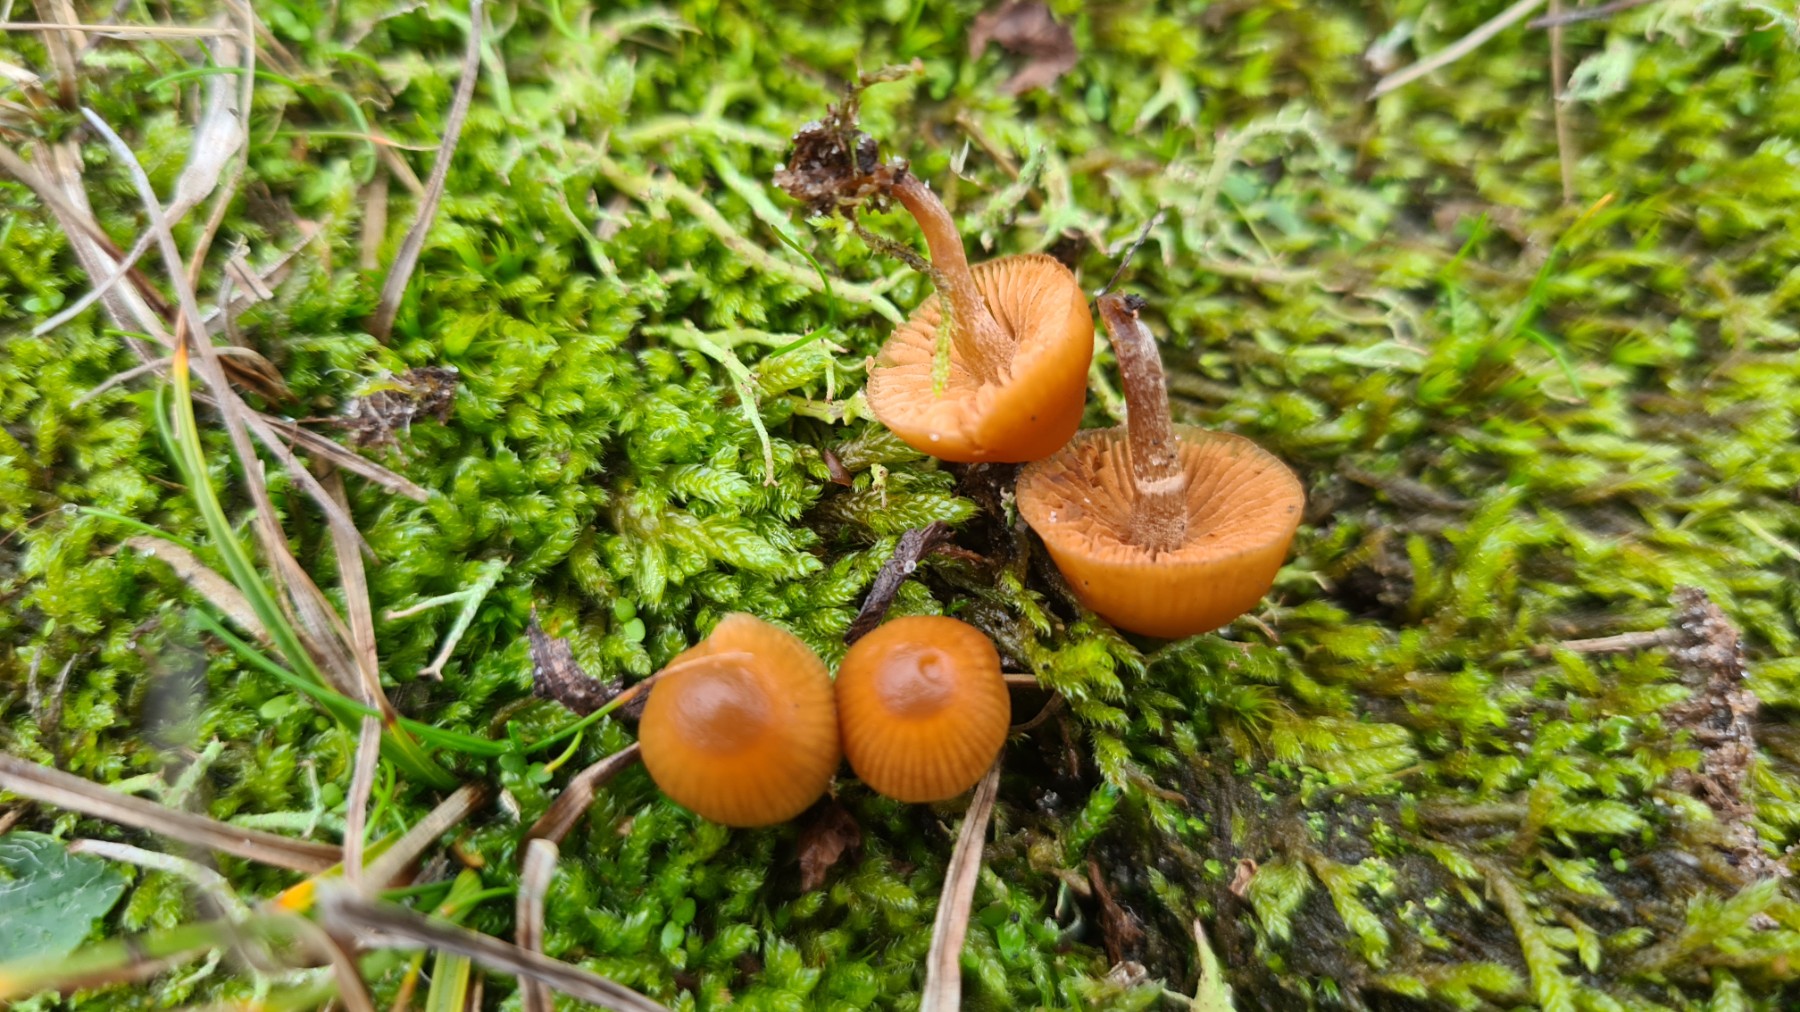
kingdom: Fungi
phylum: Basidiomycota
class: Agaricomycetes
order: Agaricales
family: Hymenogastraceae
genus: Galerina
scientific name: Galerina
